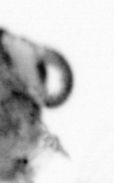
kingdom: Animalia
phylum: Arthropoda
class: Copepoda
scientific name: Copepoda
